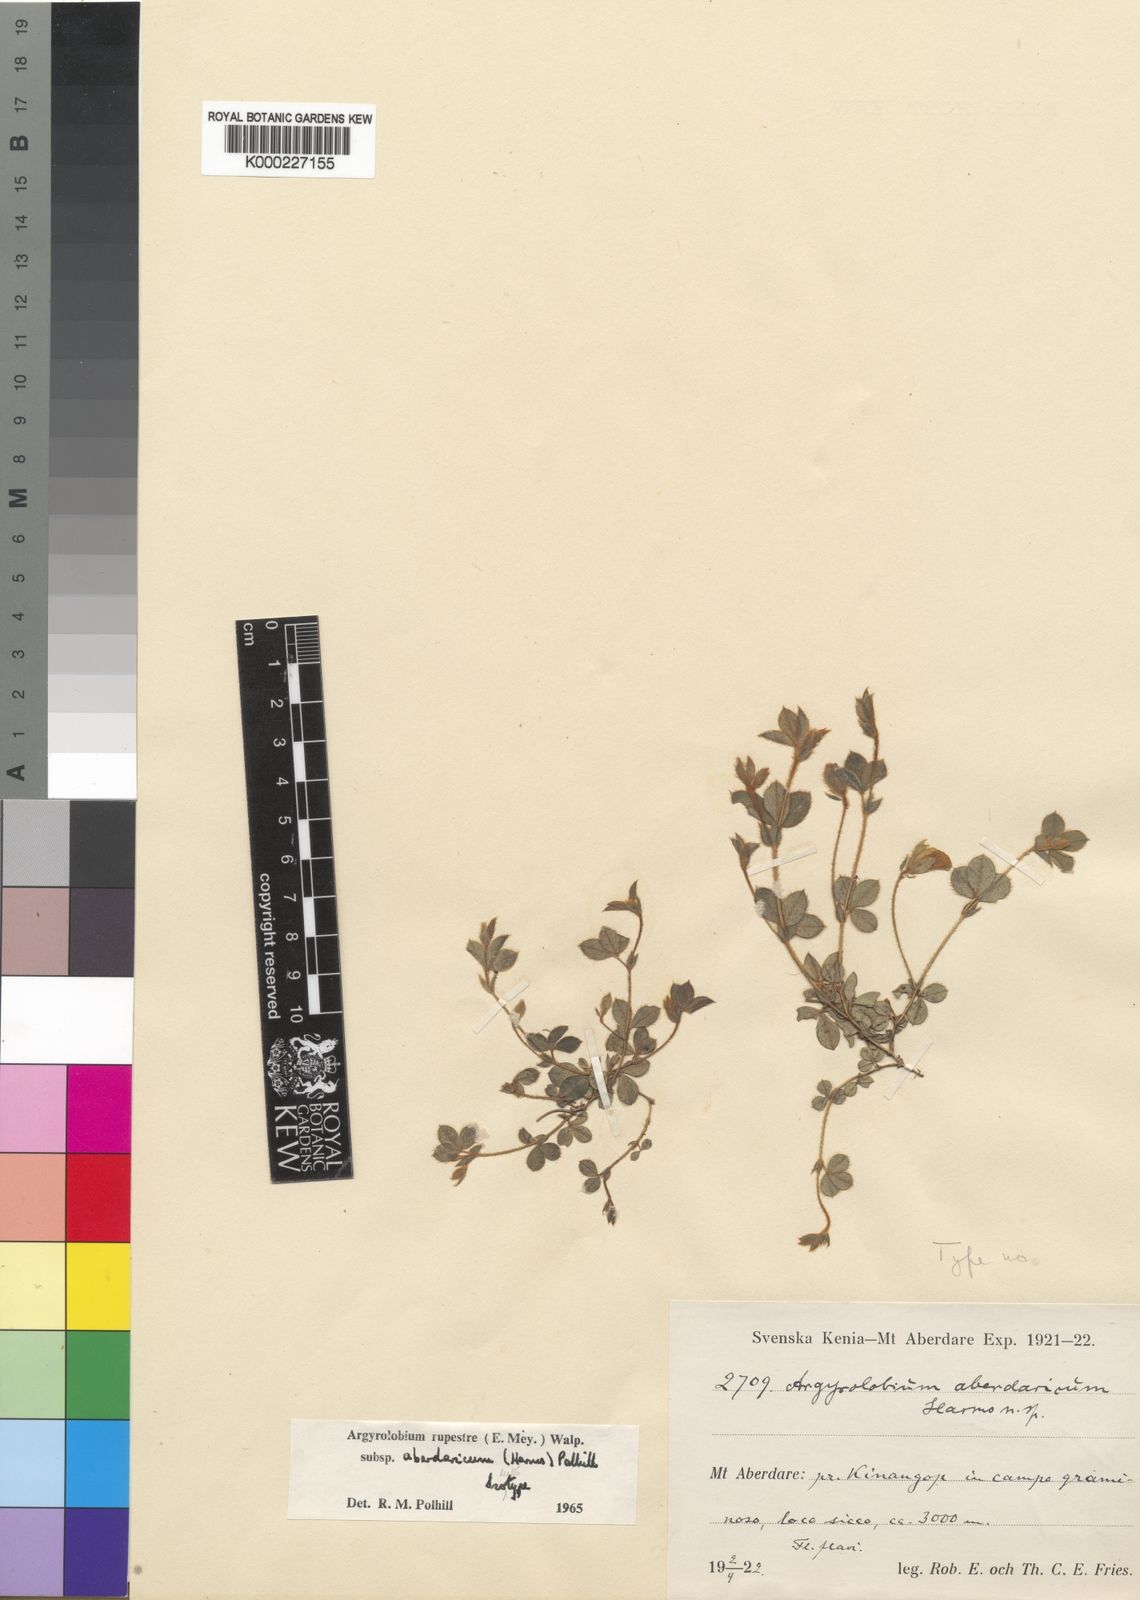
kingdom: Plantae
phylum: Tracheophyta
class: Magnoliopsida
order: Fabales
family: Fabaceae
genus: Argyrolobium
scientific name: Argyrolobium rupestre
